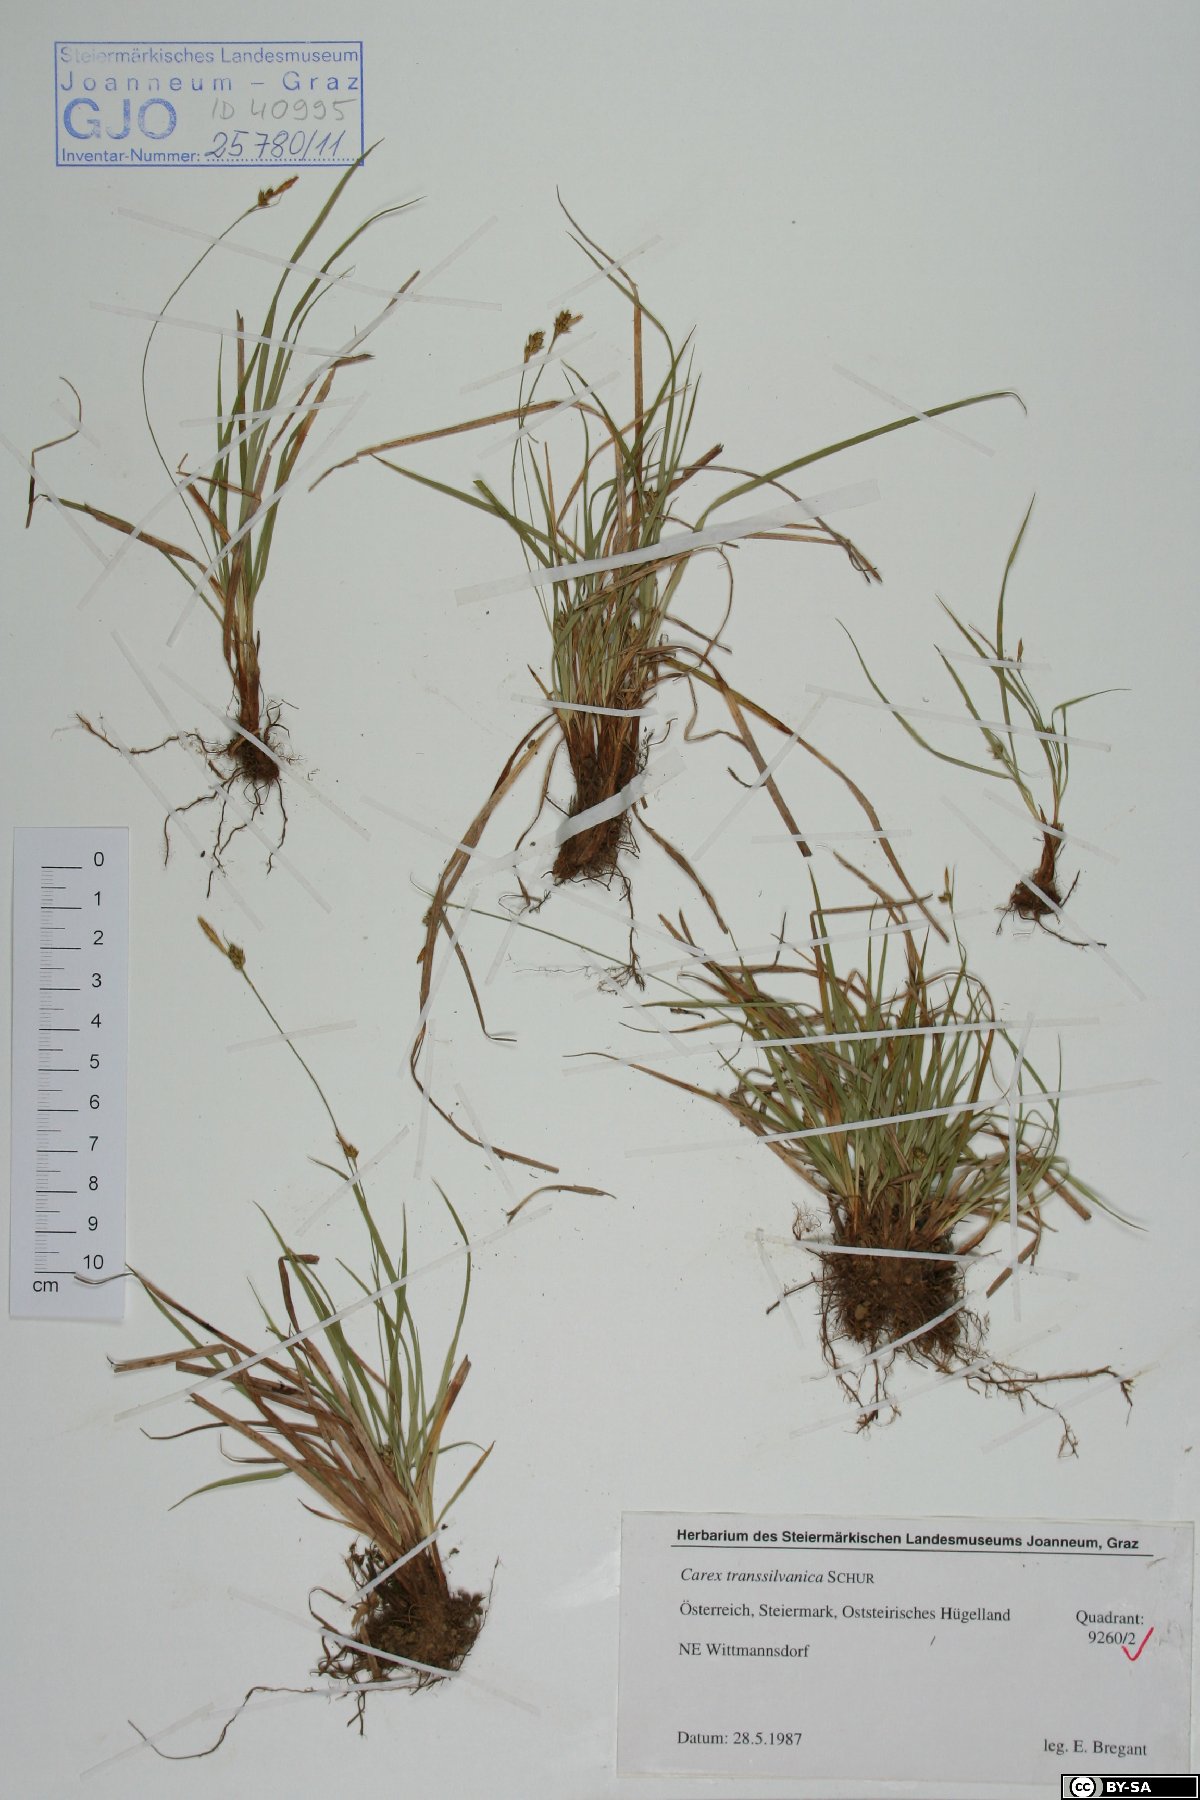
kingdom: Plantae
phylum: Tracheophyta
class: Liliopsida
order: Poales
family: Cyperaceae
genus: Carex
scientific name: Carex depressa
